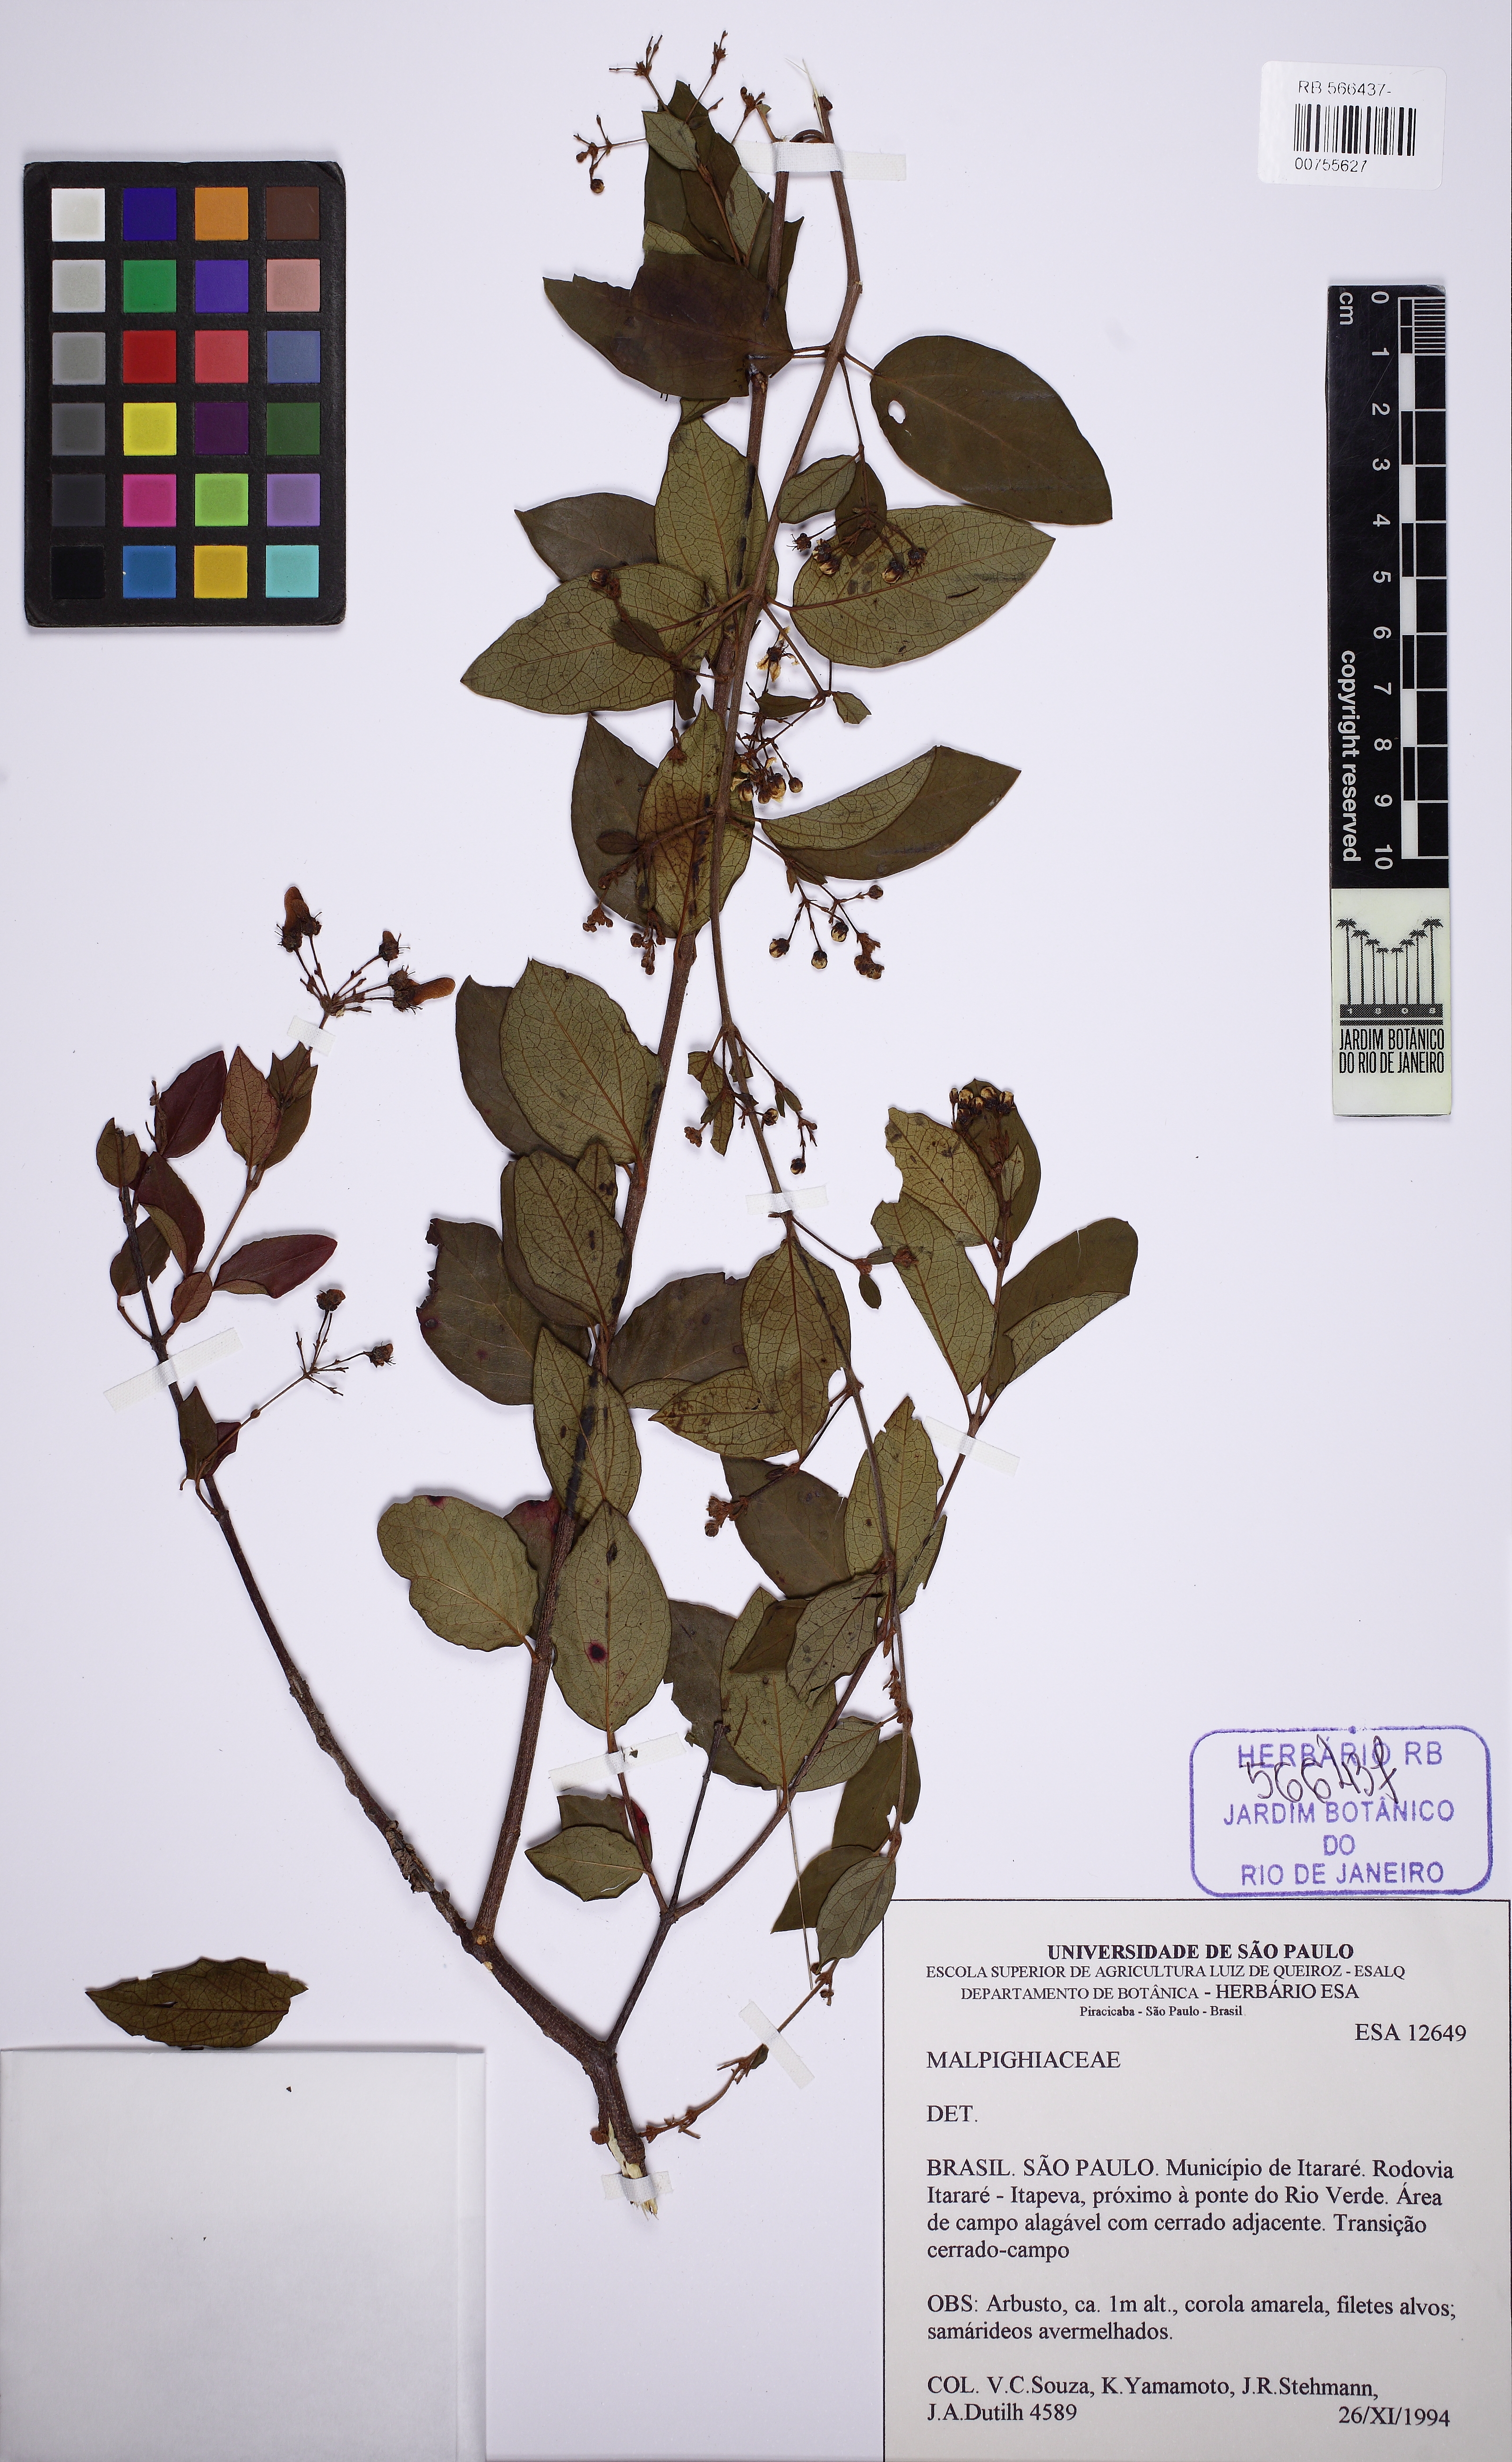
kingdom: Plantae
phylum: Tracheophyta
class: Magnoliopsida
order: Malpighiales
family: Malpighiaceae
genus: Heteropterys
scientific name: Heteropterys
